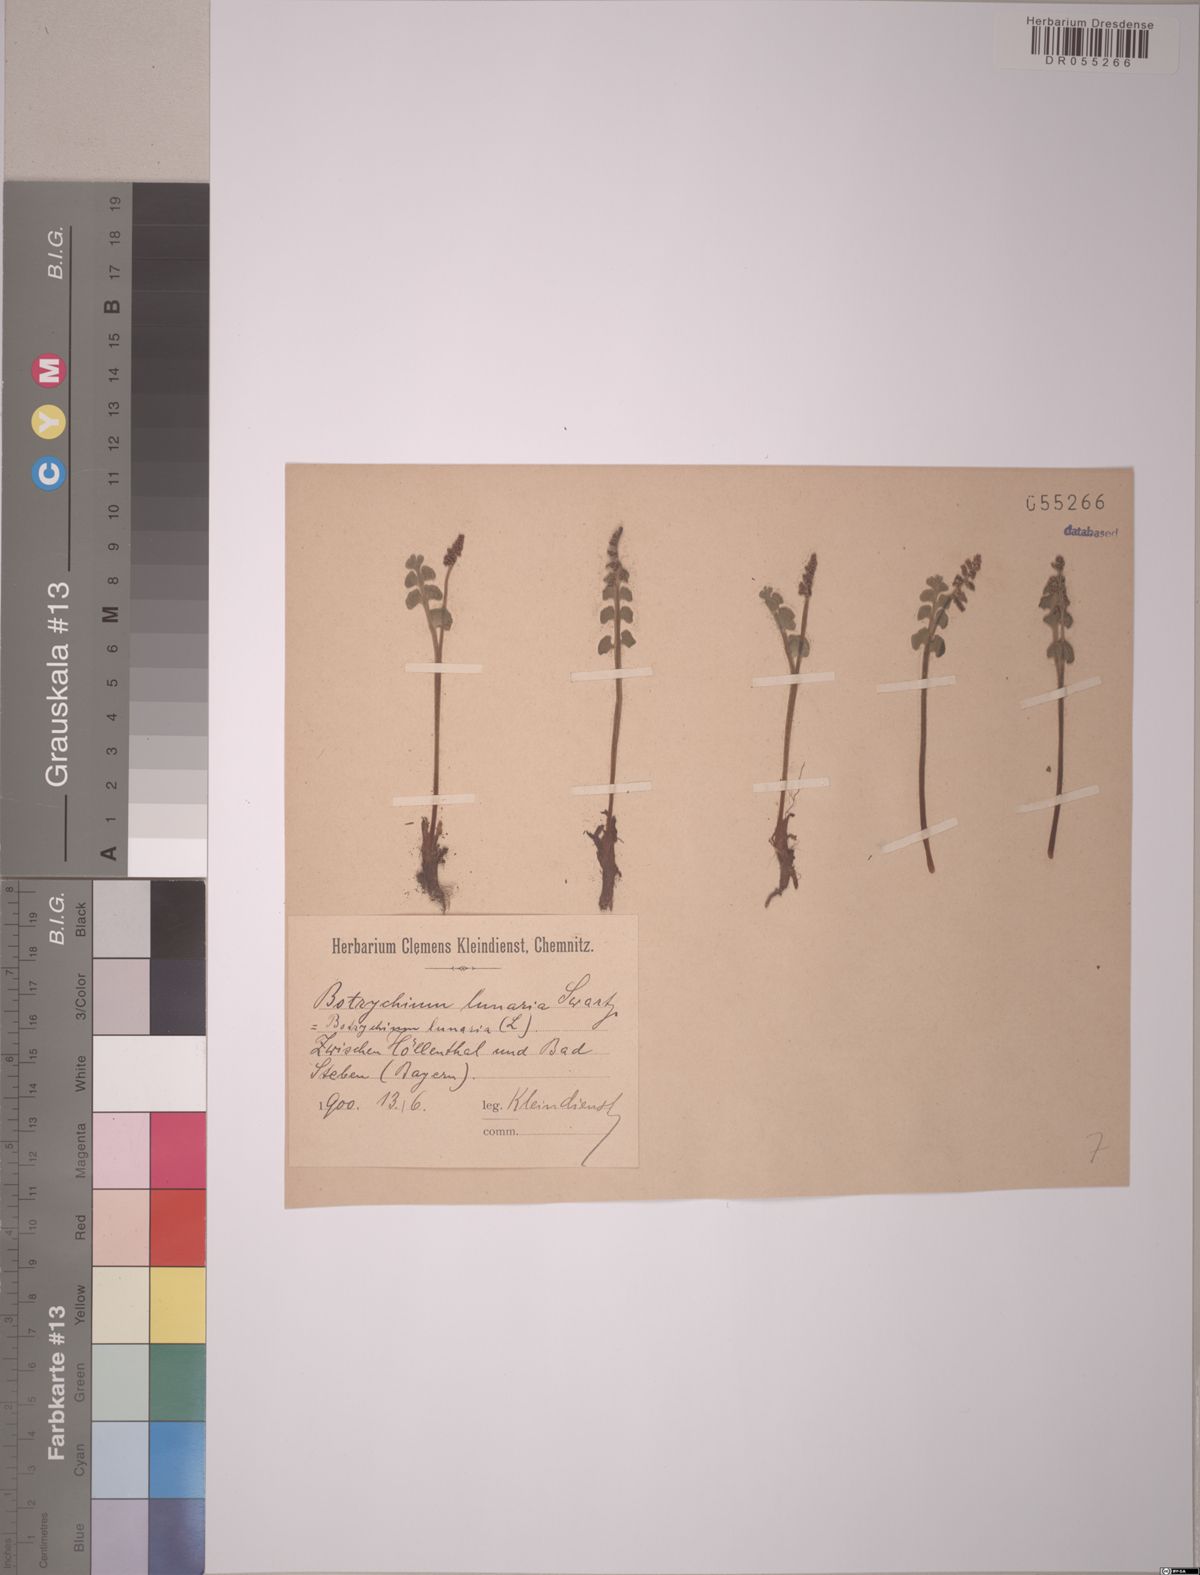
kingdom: Plantae
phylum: Tracheophyta
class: Polypodiopsida
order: Ophioglossales
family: Ophioglossaceae
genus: Botrychium
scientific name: Botrychium lunaria
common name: Moonwort
